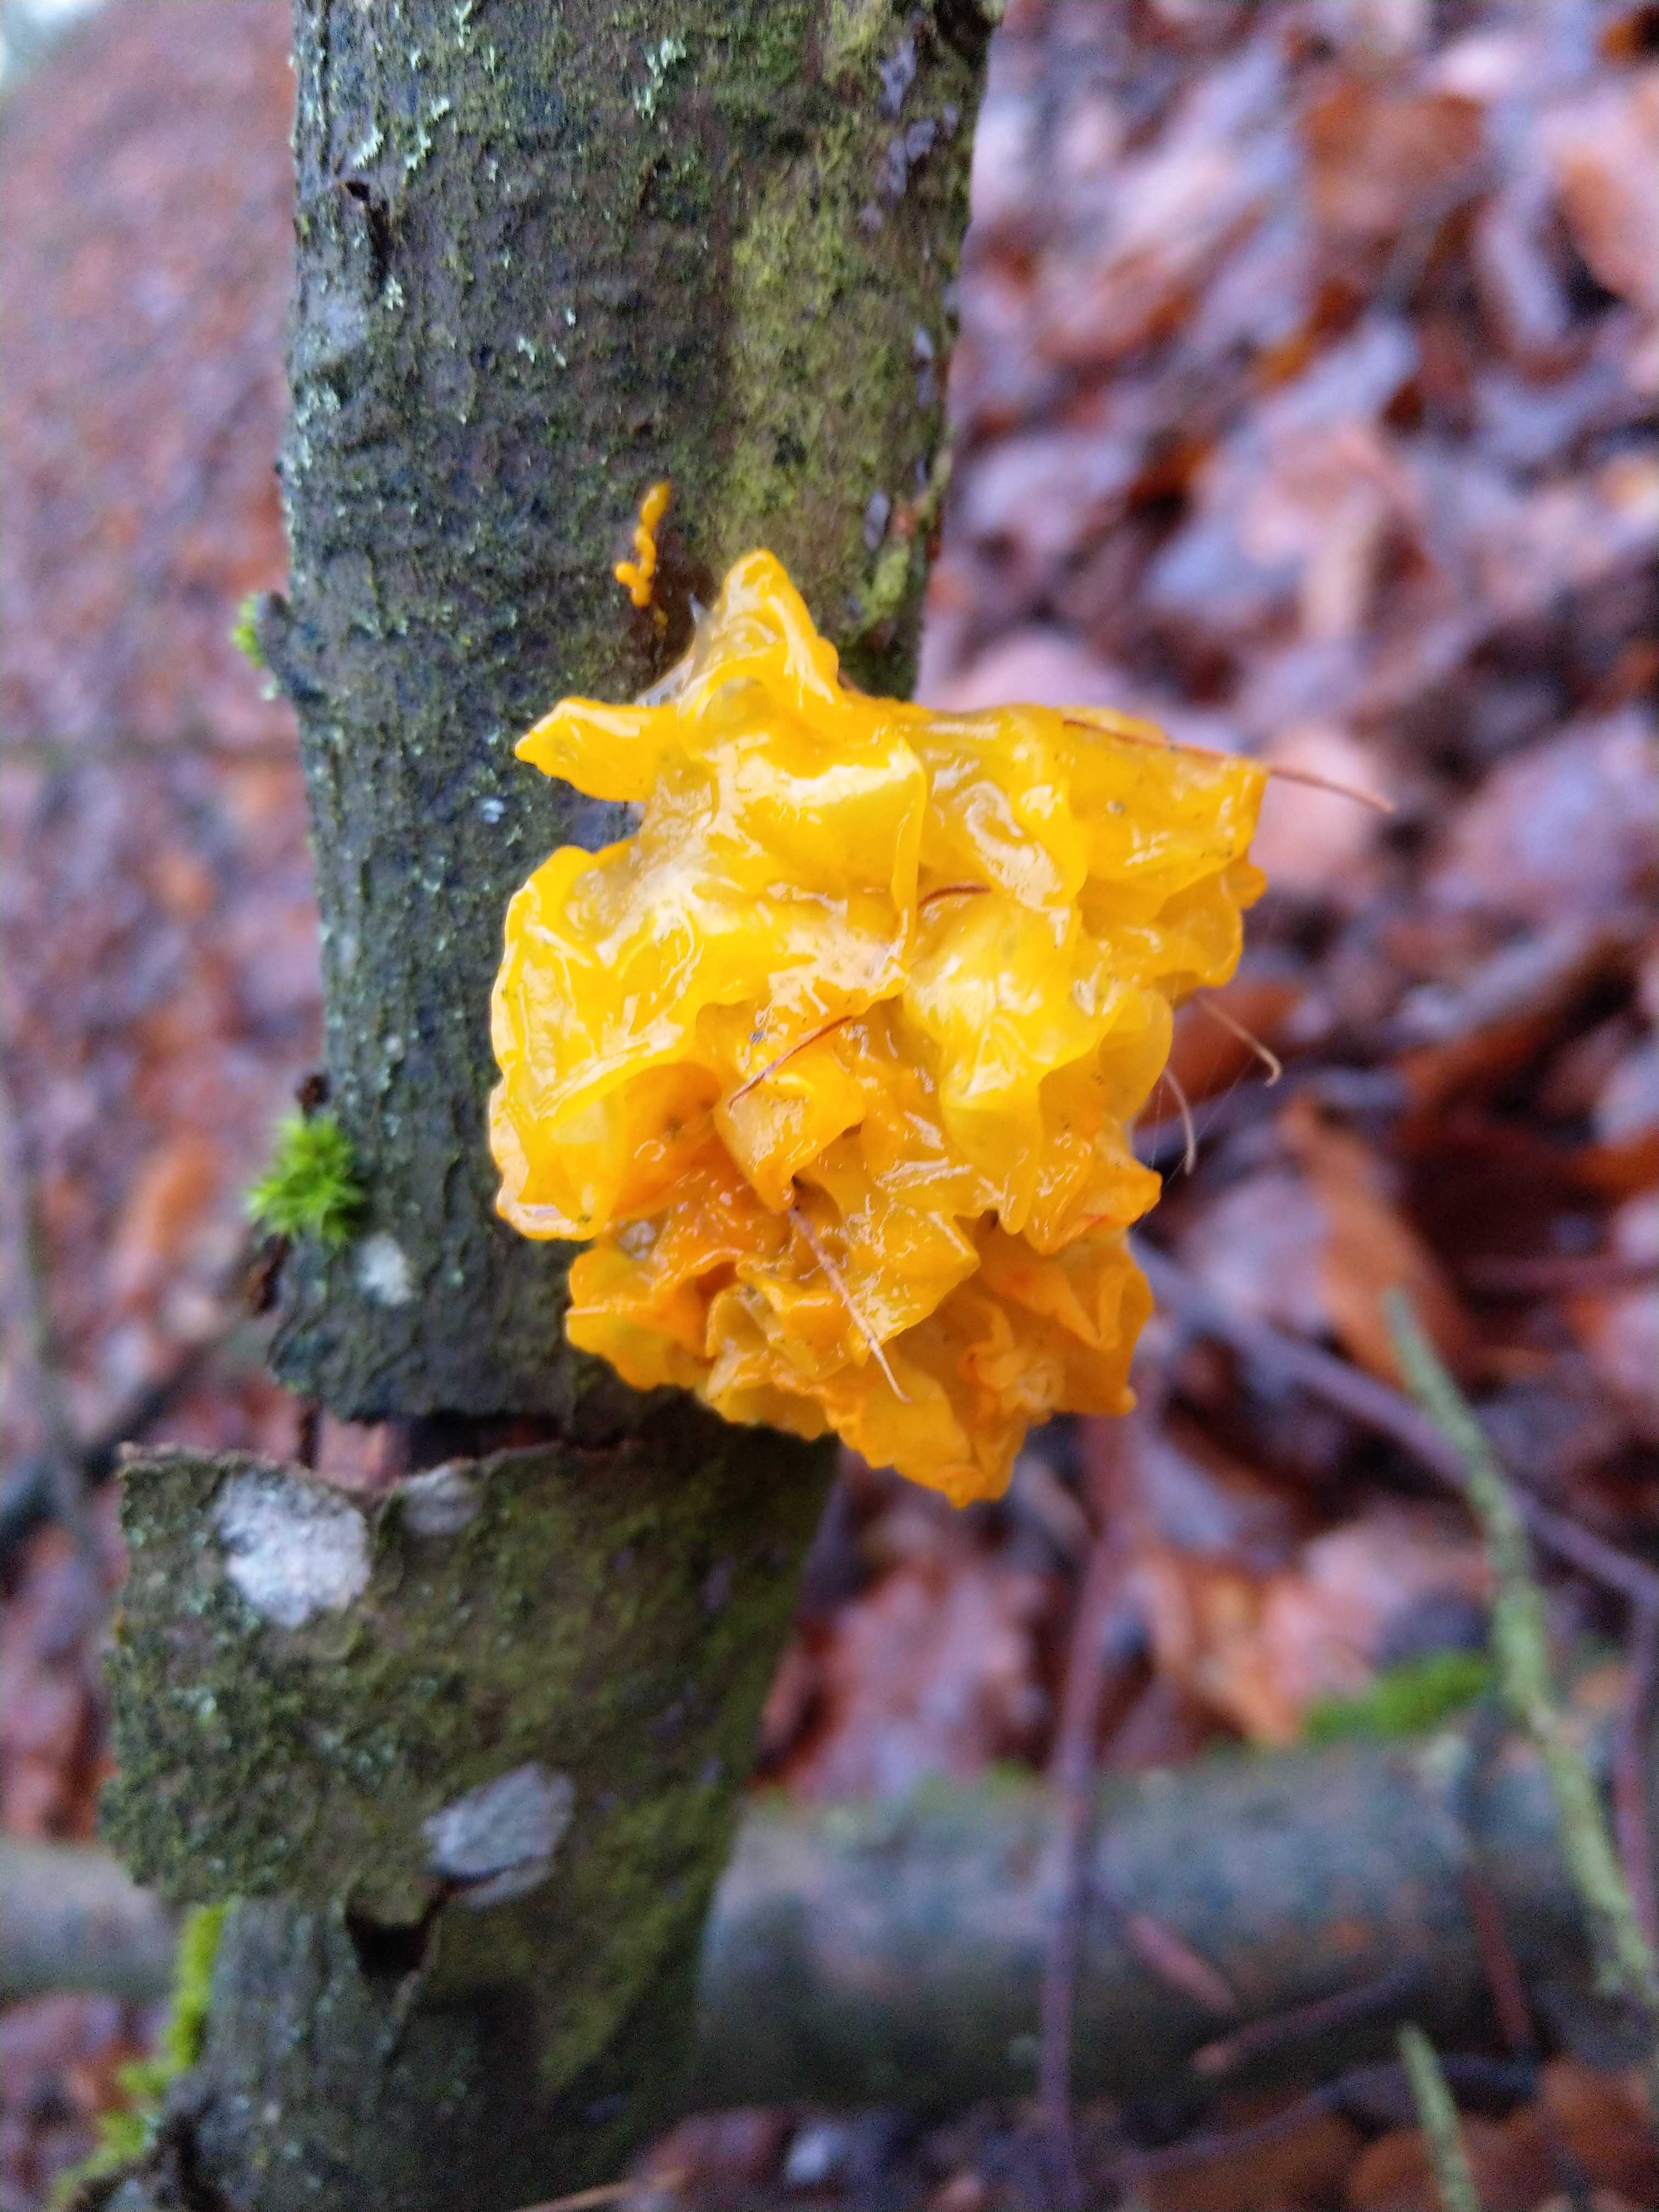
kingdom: Fungi
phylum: Basidiomycota
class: Tremellomycetes
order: Tremellales
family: Tremellaceae
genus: Tremella
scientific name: Tremella mesenterica
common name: gul bævresvamp
